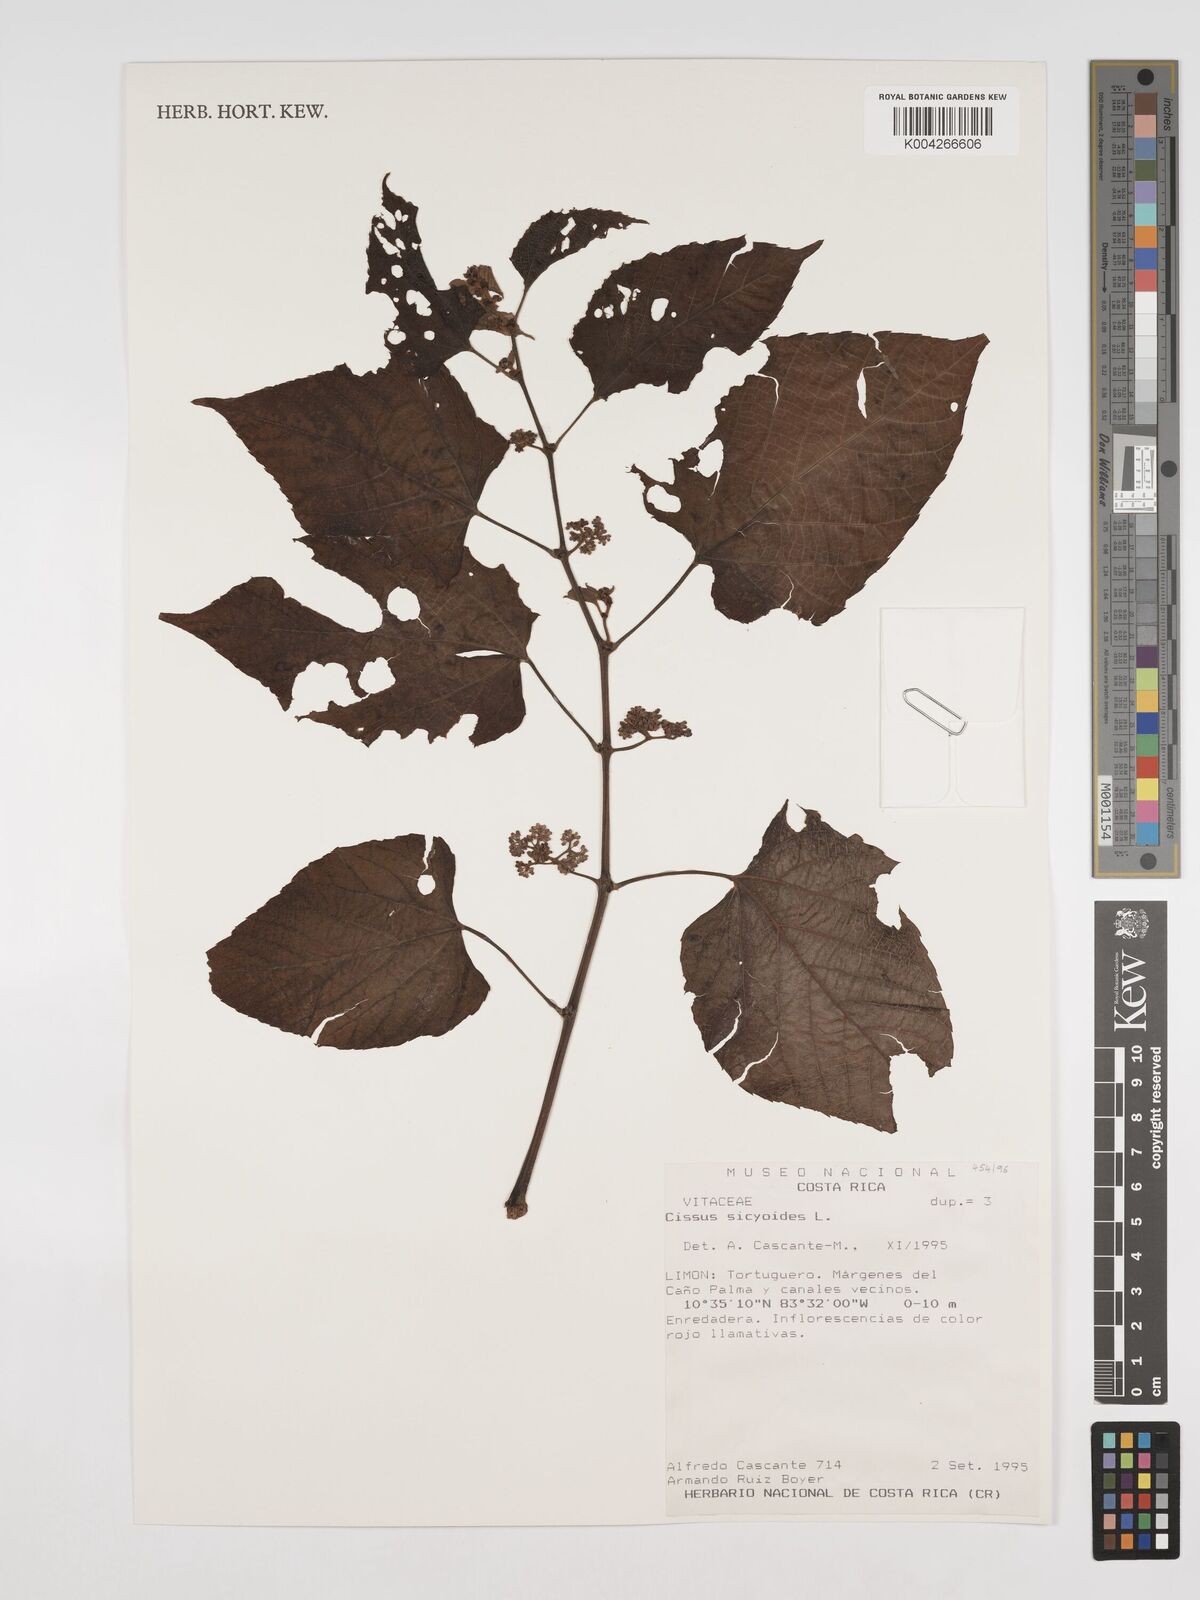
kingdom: Plantae
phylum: Tracheophyta
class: Magnoliopsida
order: Vitales
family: Vitaceae
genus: Cissus
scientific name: Cissus
